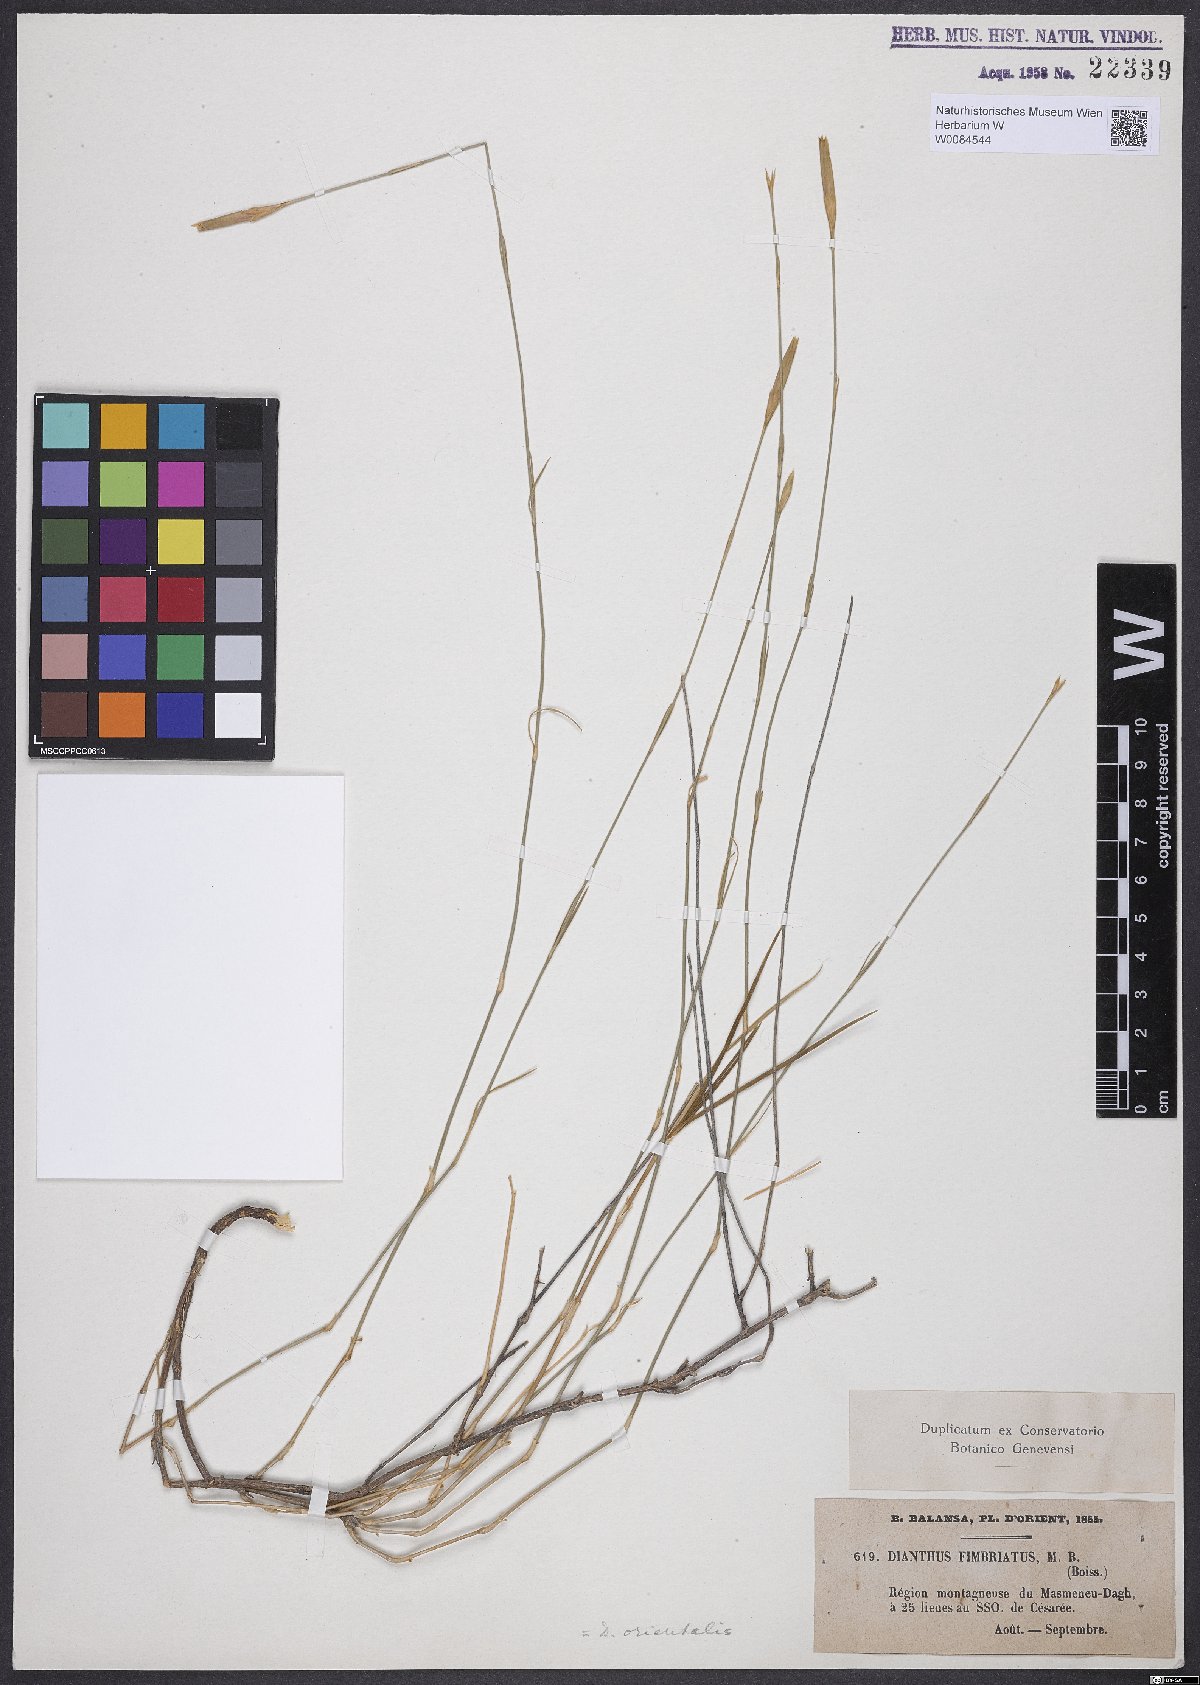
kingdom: Plantae
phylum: Tracheophyta
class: Magnoliopsida
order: Caryophyllales
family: Caryophyllaceae
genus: Dianthus
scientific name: Dianthus orientalis
